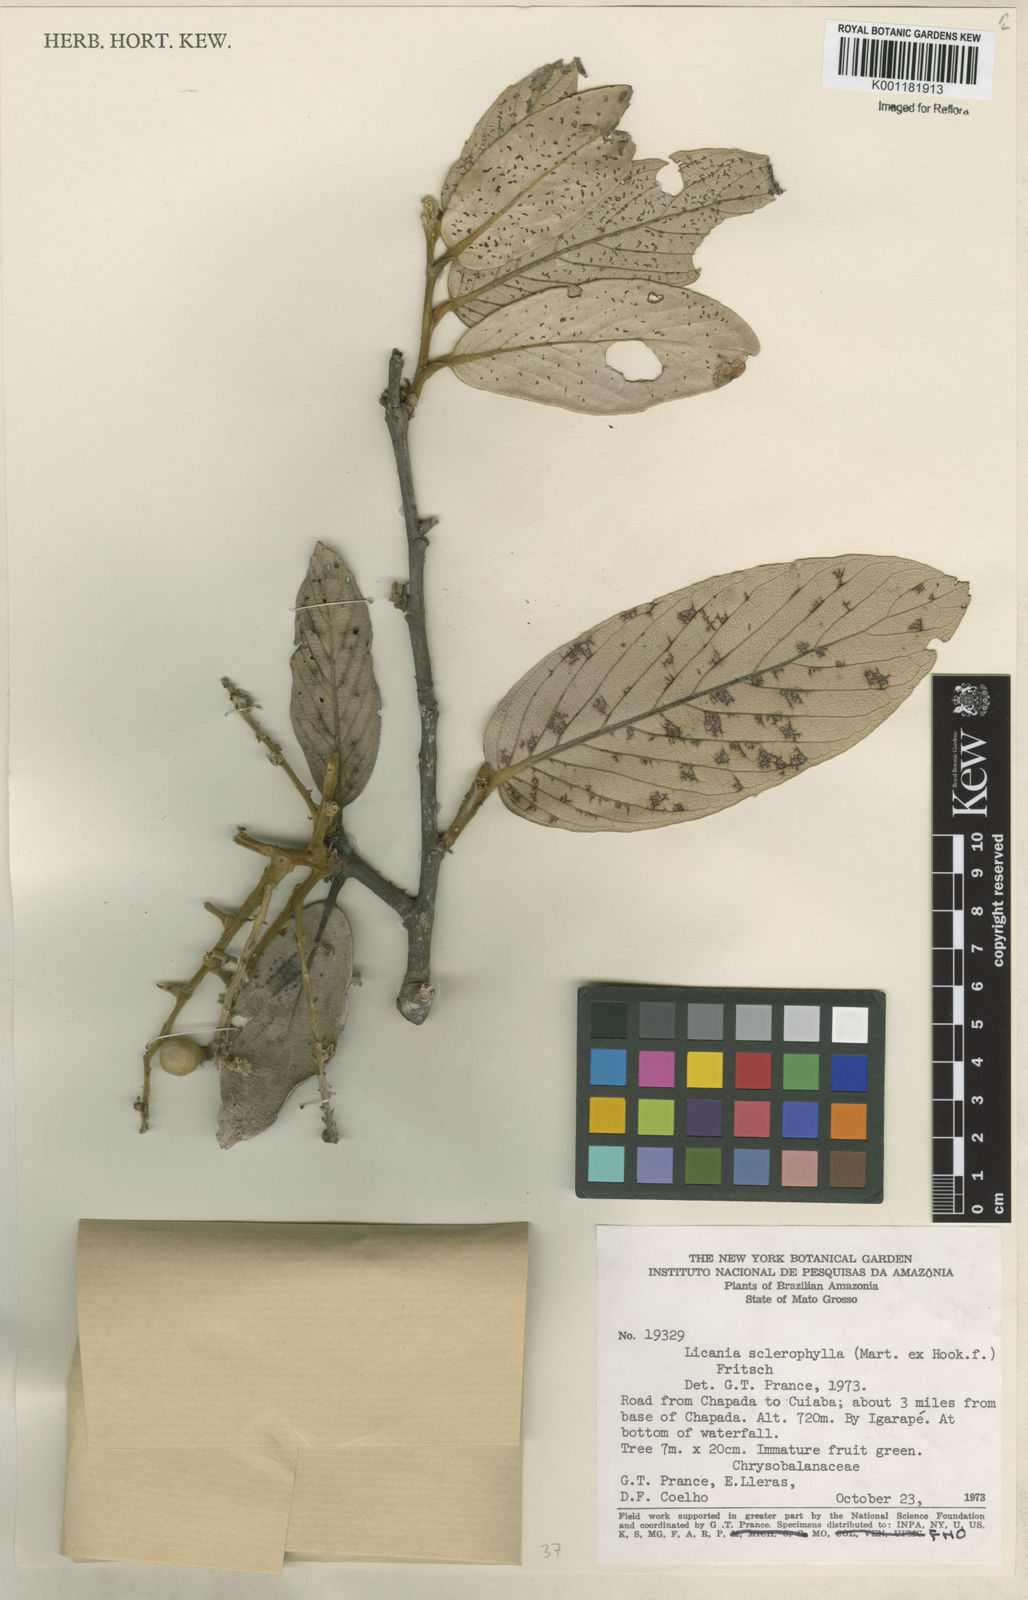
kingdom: Plantae
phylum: Tracheophyta
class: Magnoliopsida
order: Malpighiales
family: Chrysobalanaceae
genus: Leptobalanus
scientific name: Leptobalanus sclerophyllus
